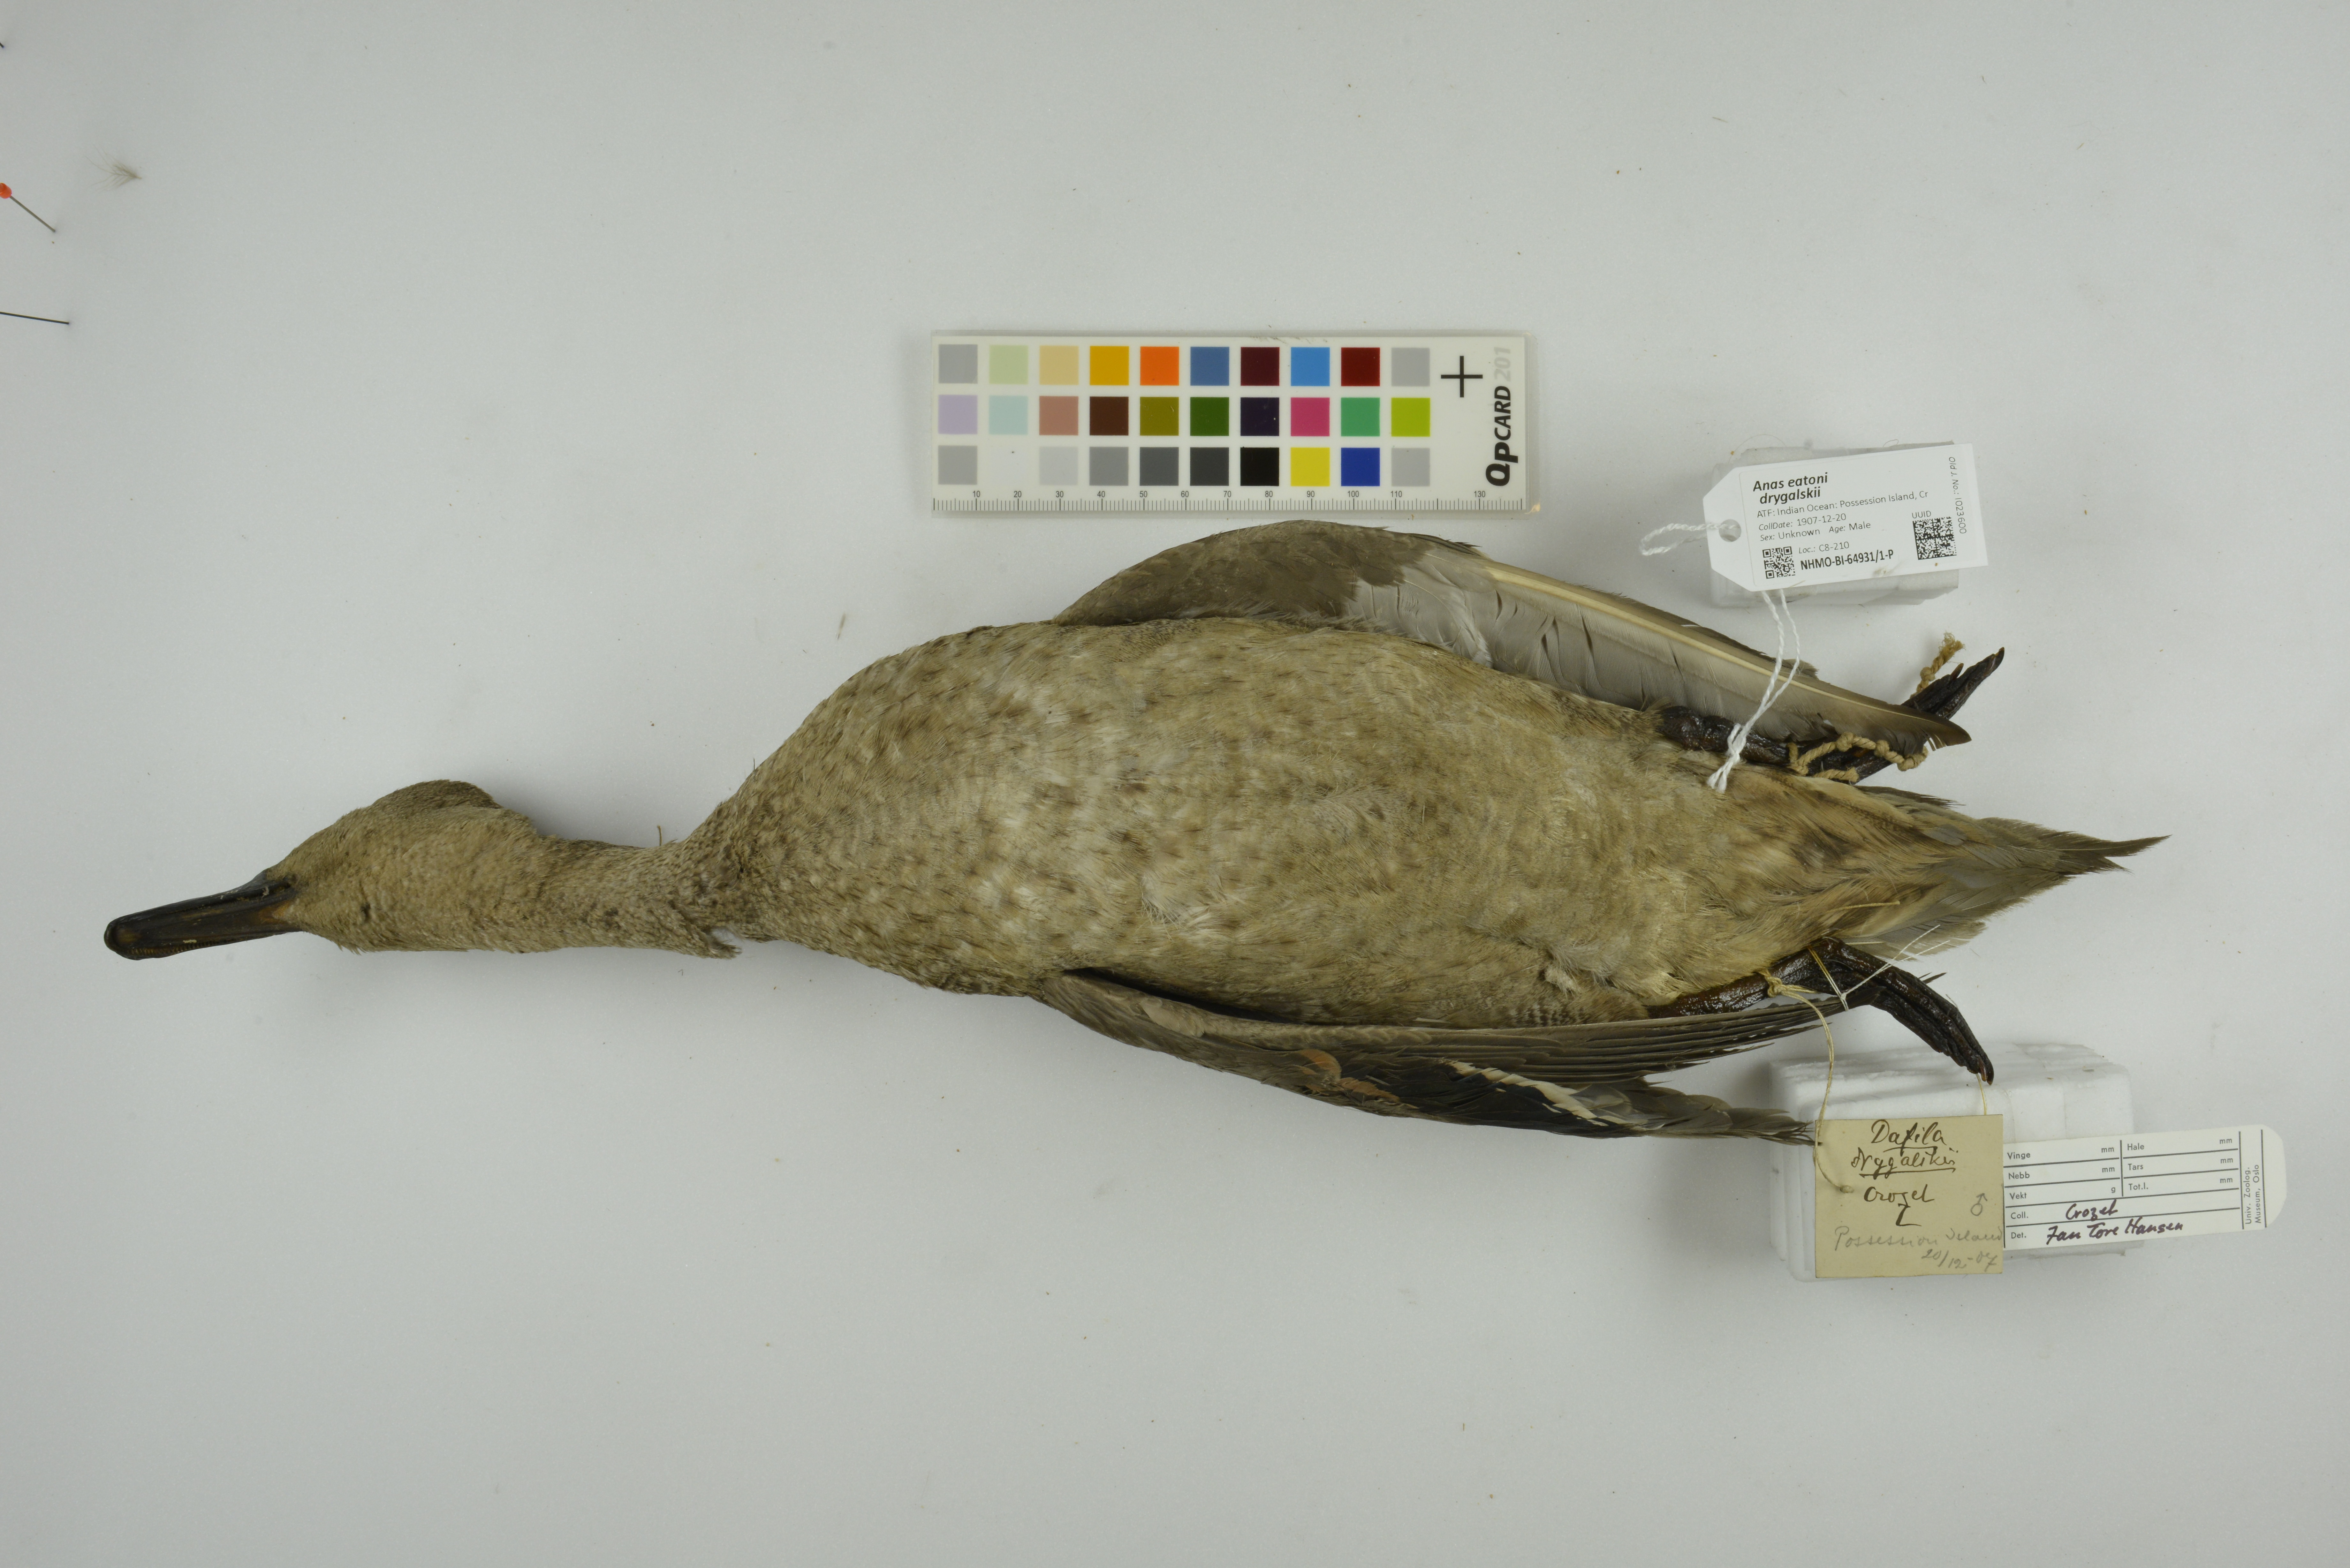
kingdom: Animalia
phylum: Chordata
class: Aves
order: Anseriformes
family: Anatidae
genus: Anas
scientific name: Anas eatoni
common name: Eaton's pintail
